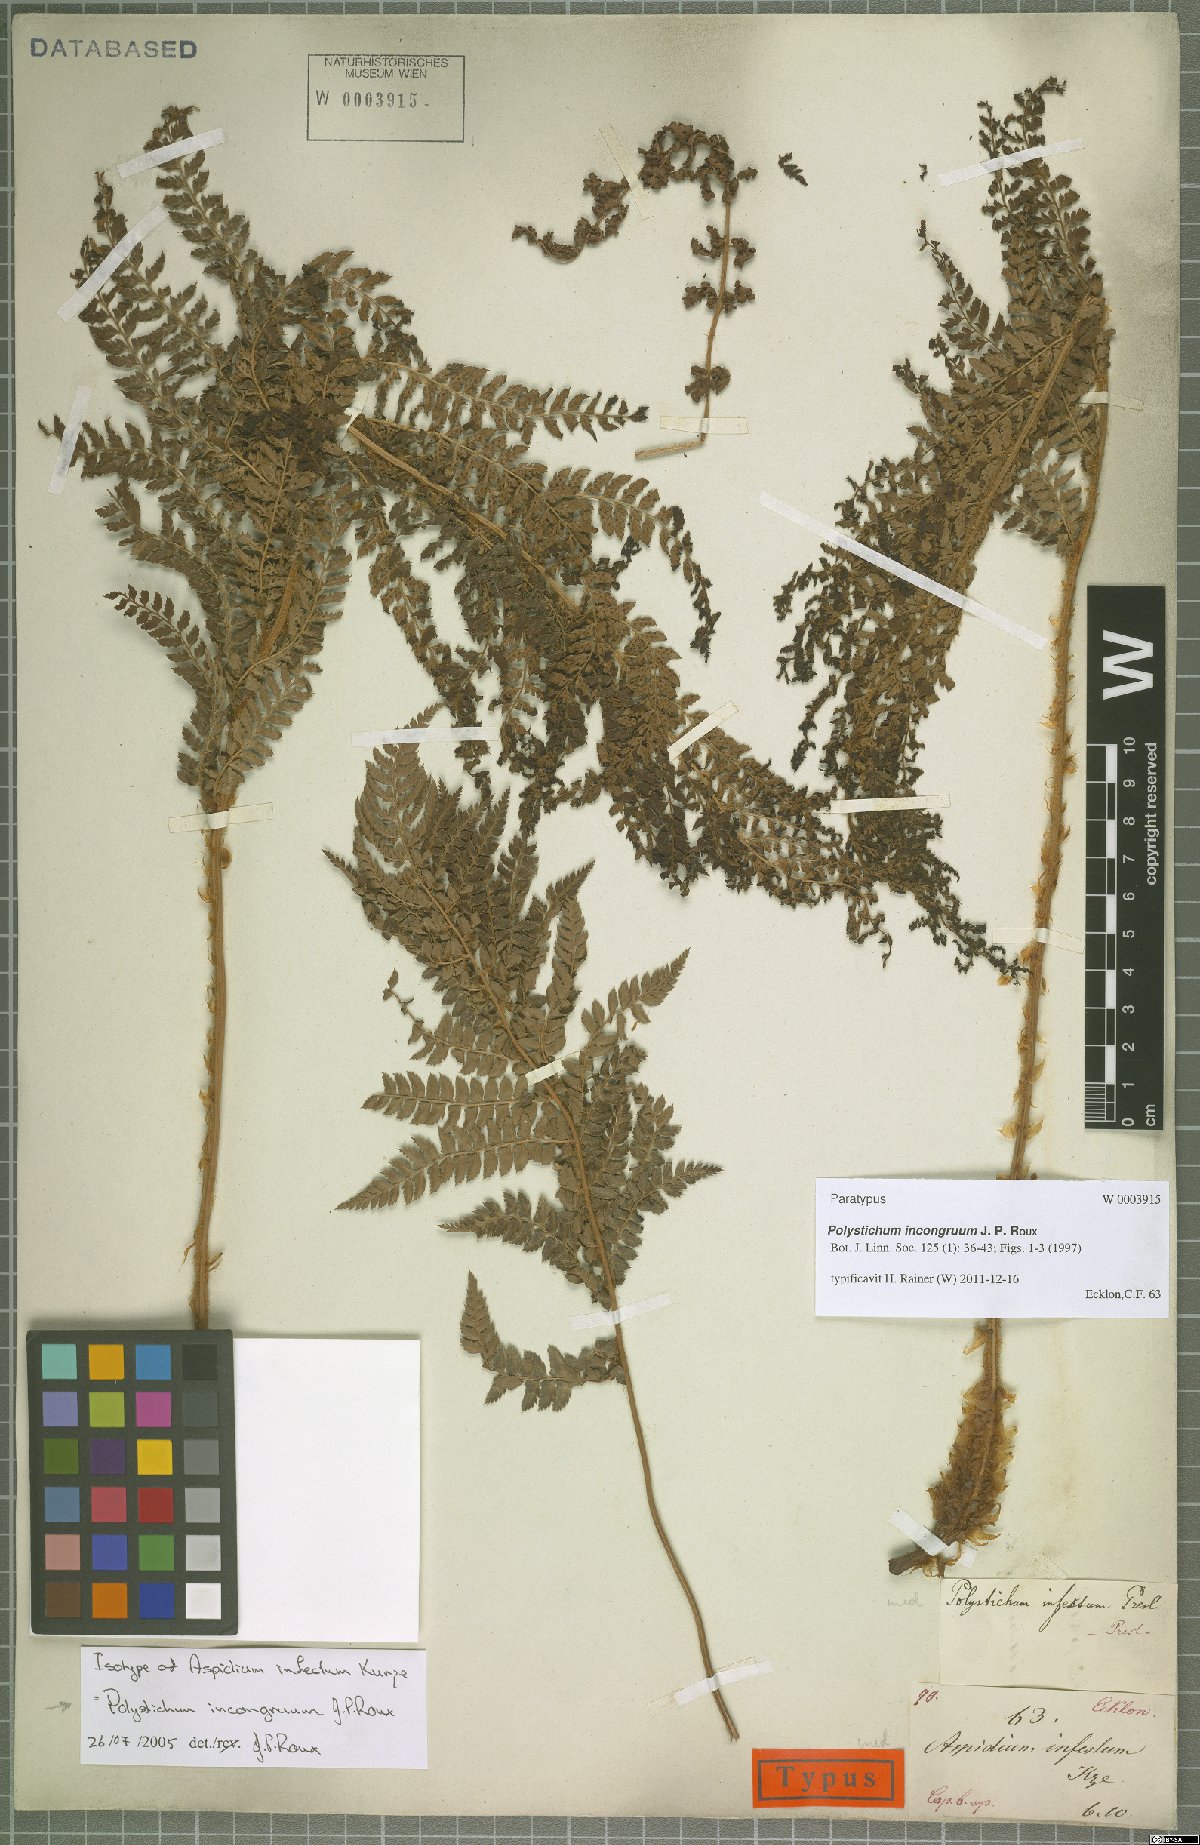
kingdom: Plantae
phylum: Tracheophyta
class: Polypodiopsida
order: Polypodiales
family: Dryopteridaceae
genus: Polystichum
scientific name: Polystichum incongruum
